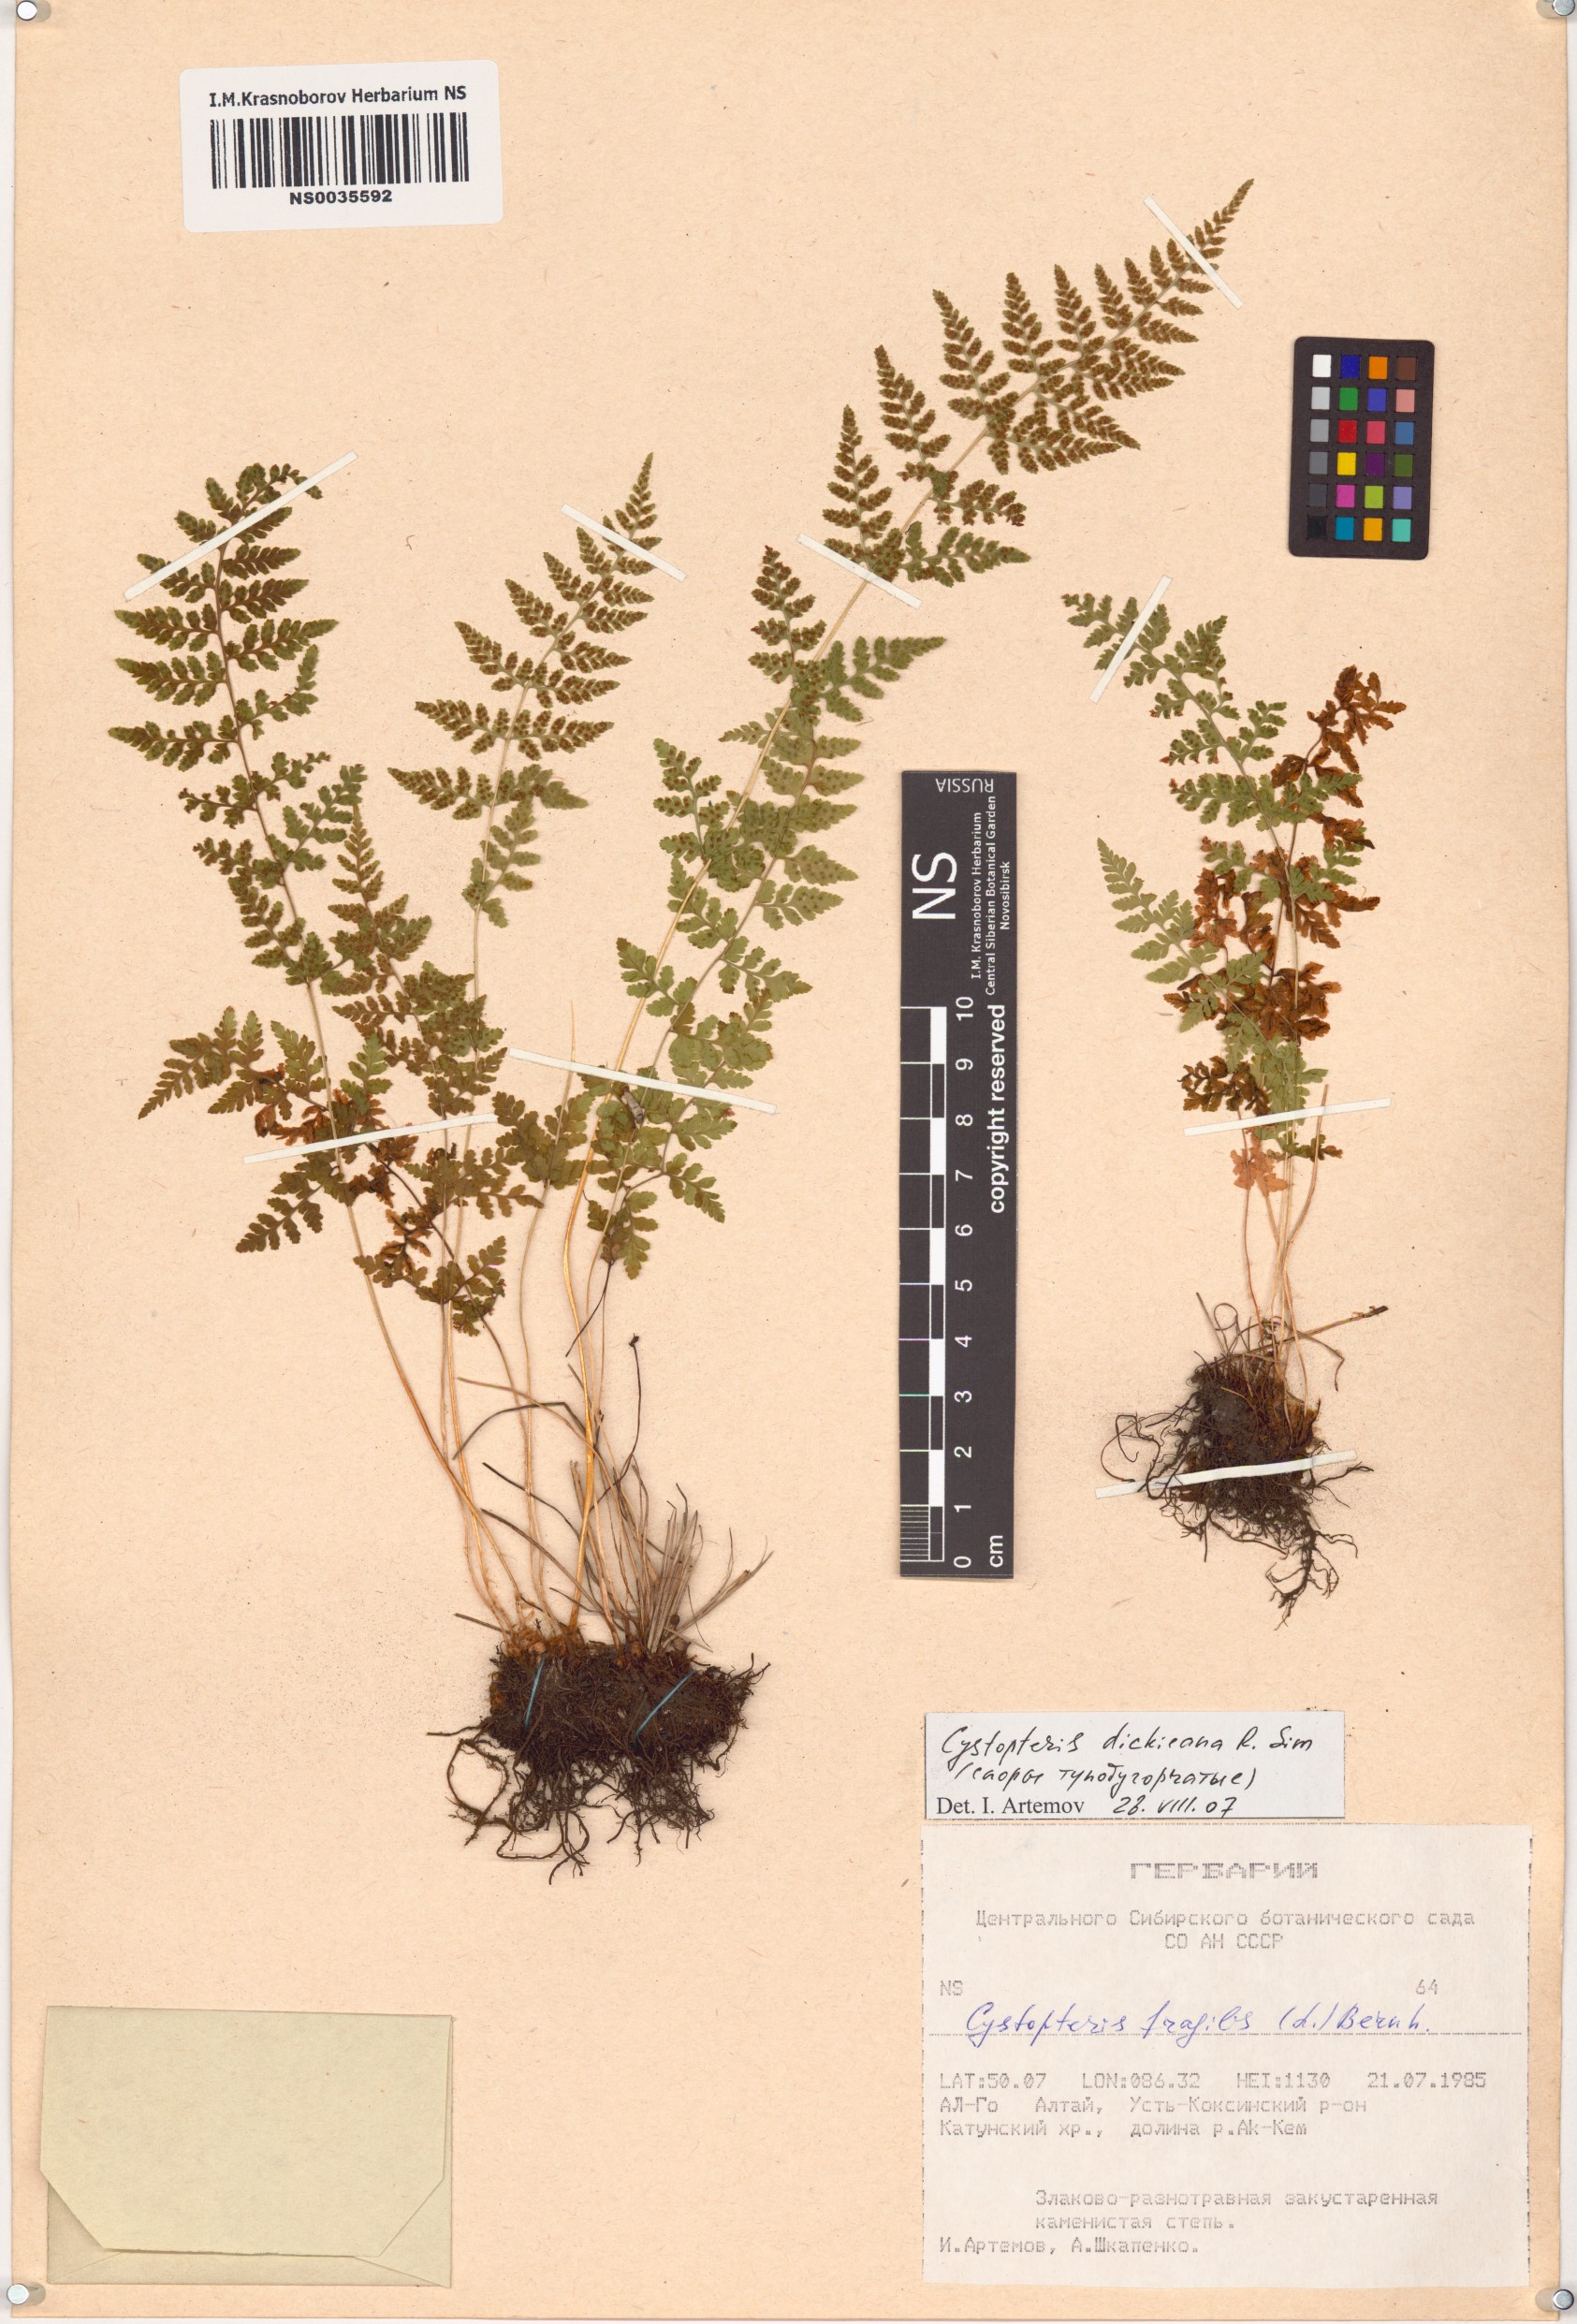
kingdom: Plantae
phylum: Tracheophyta
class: Polypodiopsida
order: Polypodiales
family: Cystopteridaceae
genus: Cystopteris
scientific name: Cystopteris dickieana
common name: Dickie's bladder-fern
